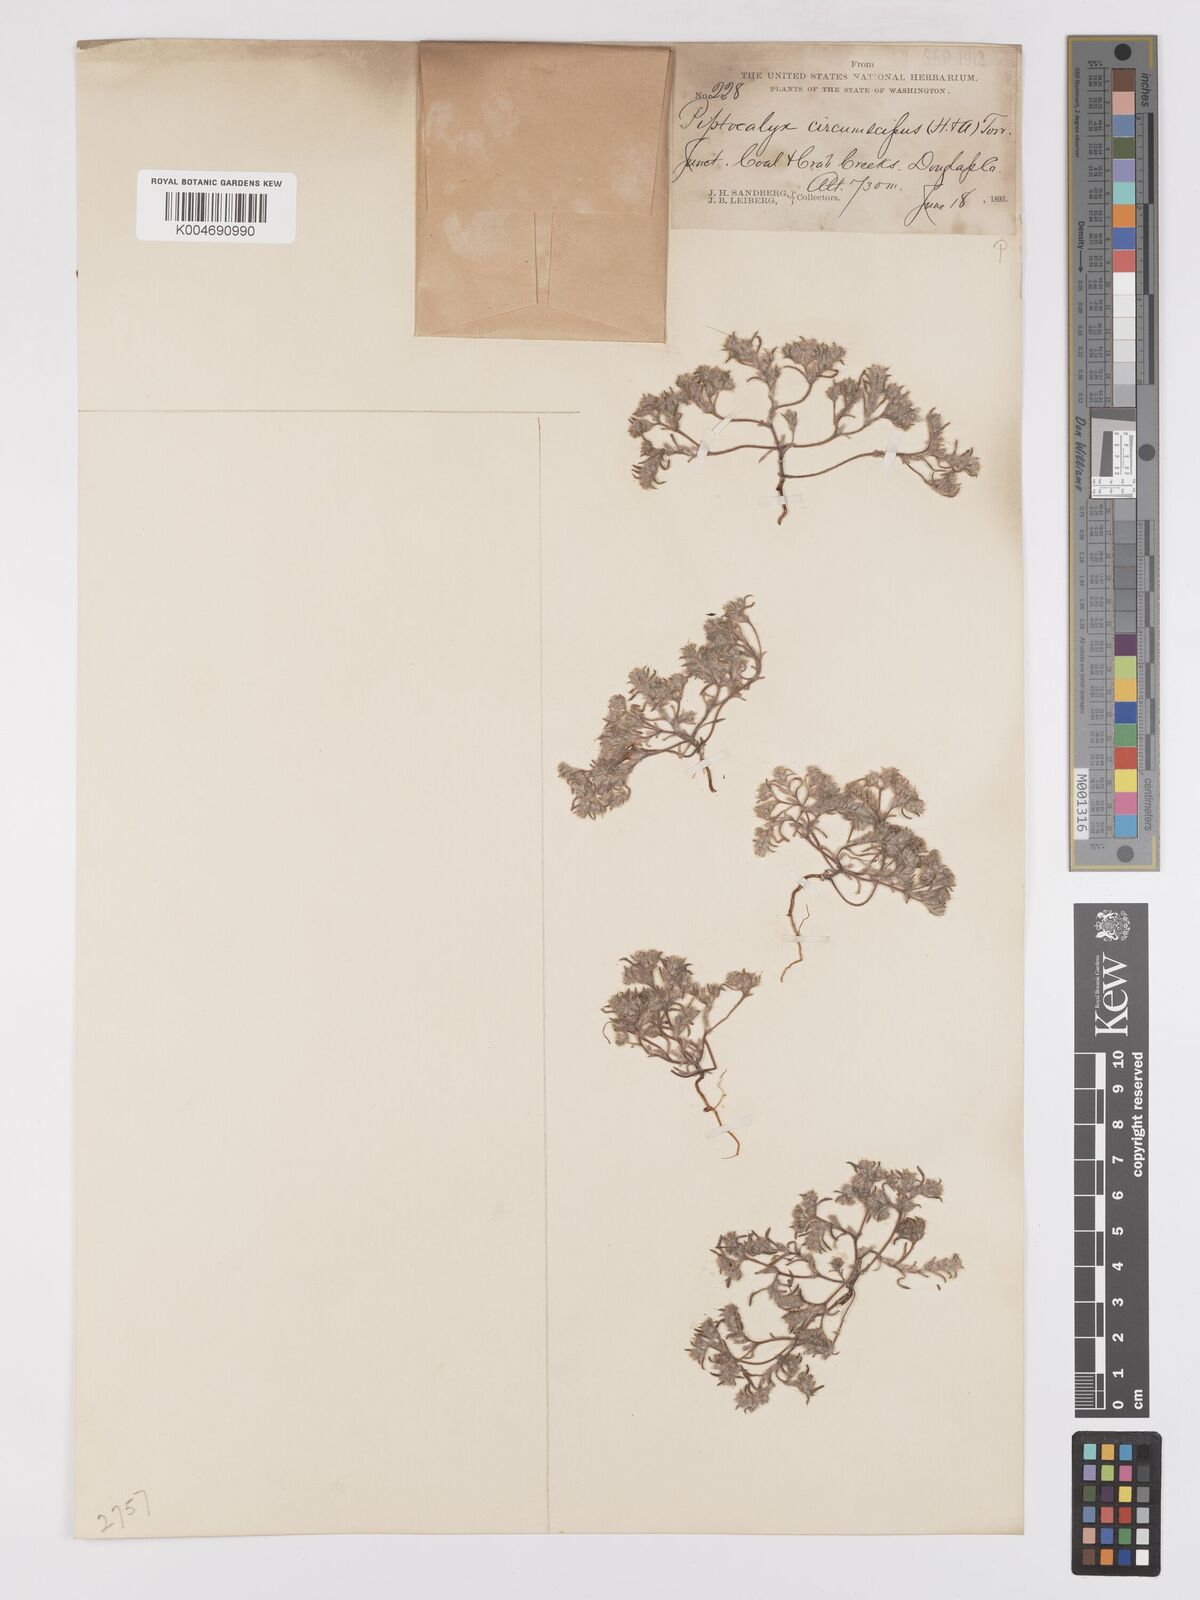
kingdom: Plantae
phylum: Tracheophyta
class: Magnoliopsida
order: Boraginales
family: Boraginaceae
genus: Greeneocharis
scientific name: Greeneocharis circumscissa
